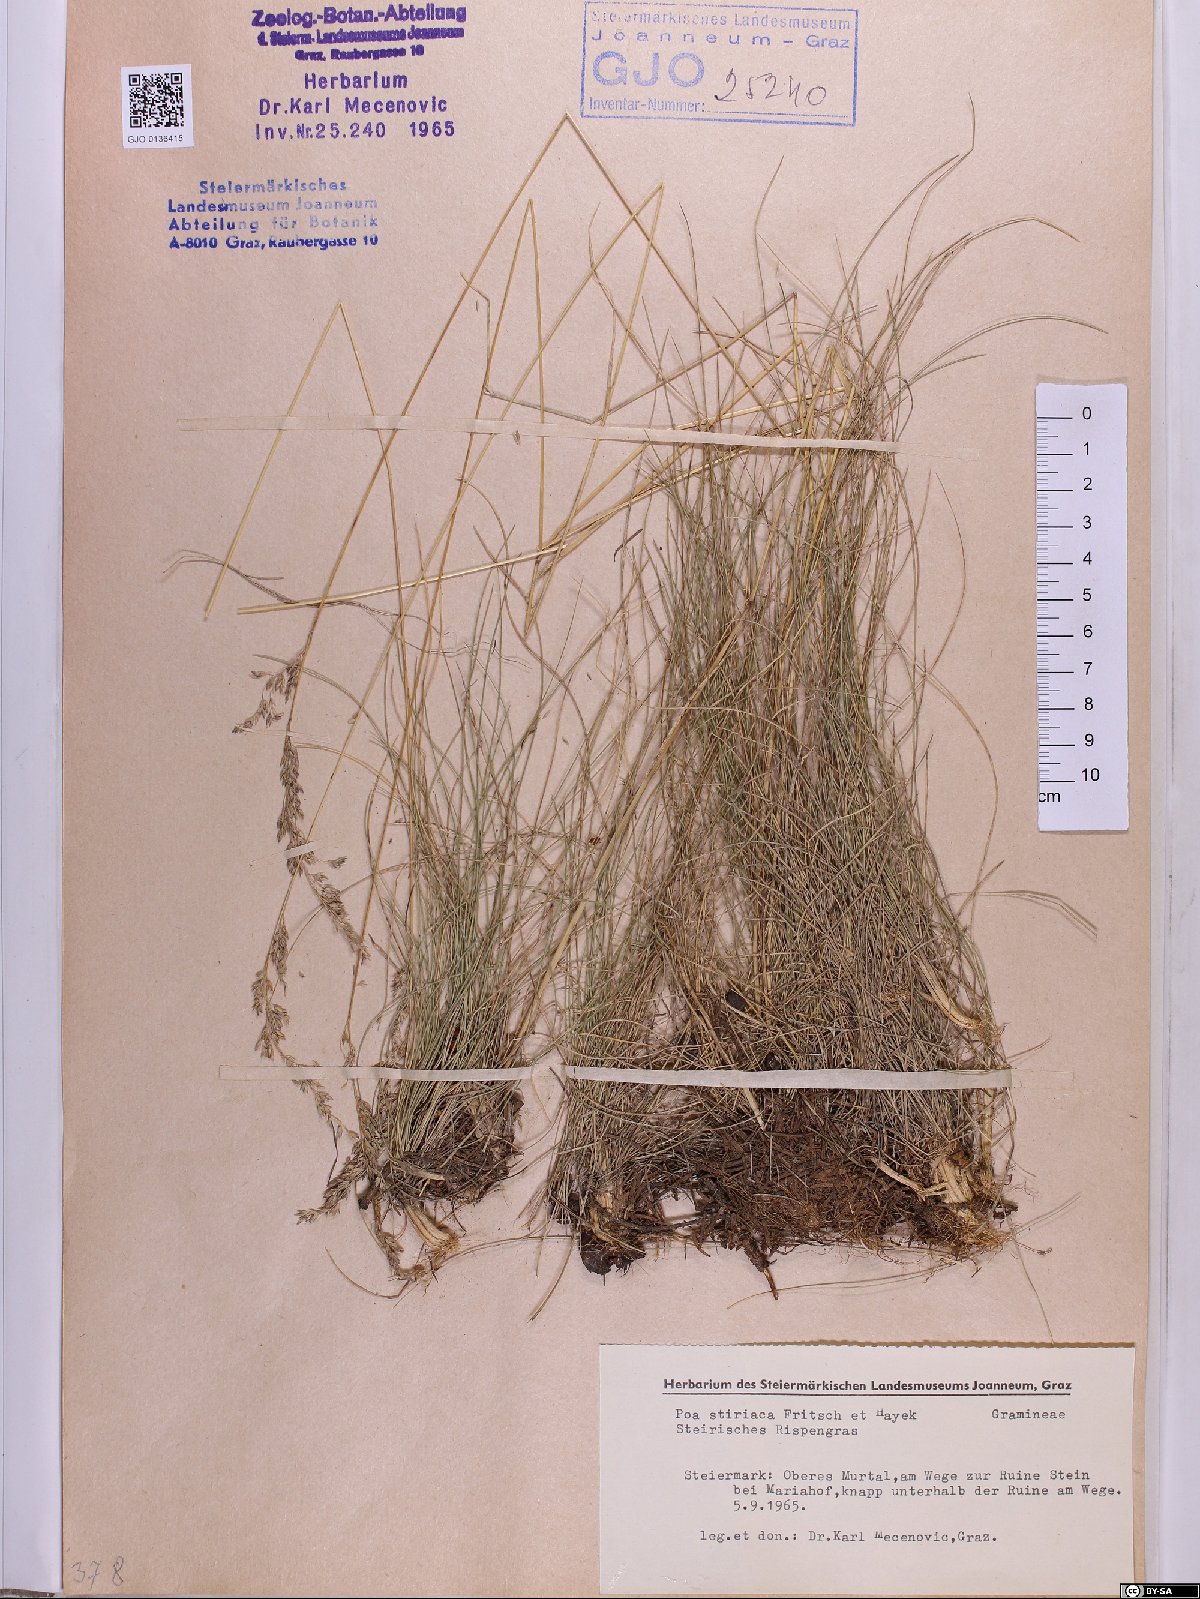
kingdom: Plantae
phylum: Tracheophyta
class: Liliopsida
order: Poales
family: Poaceae
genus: Poa
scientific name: Poa stiriaca
